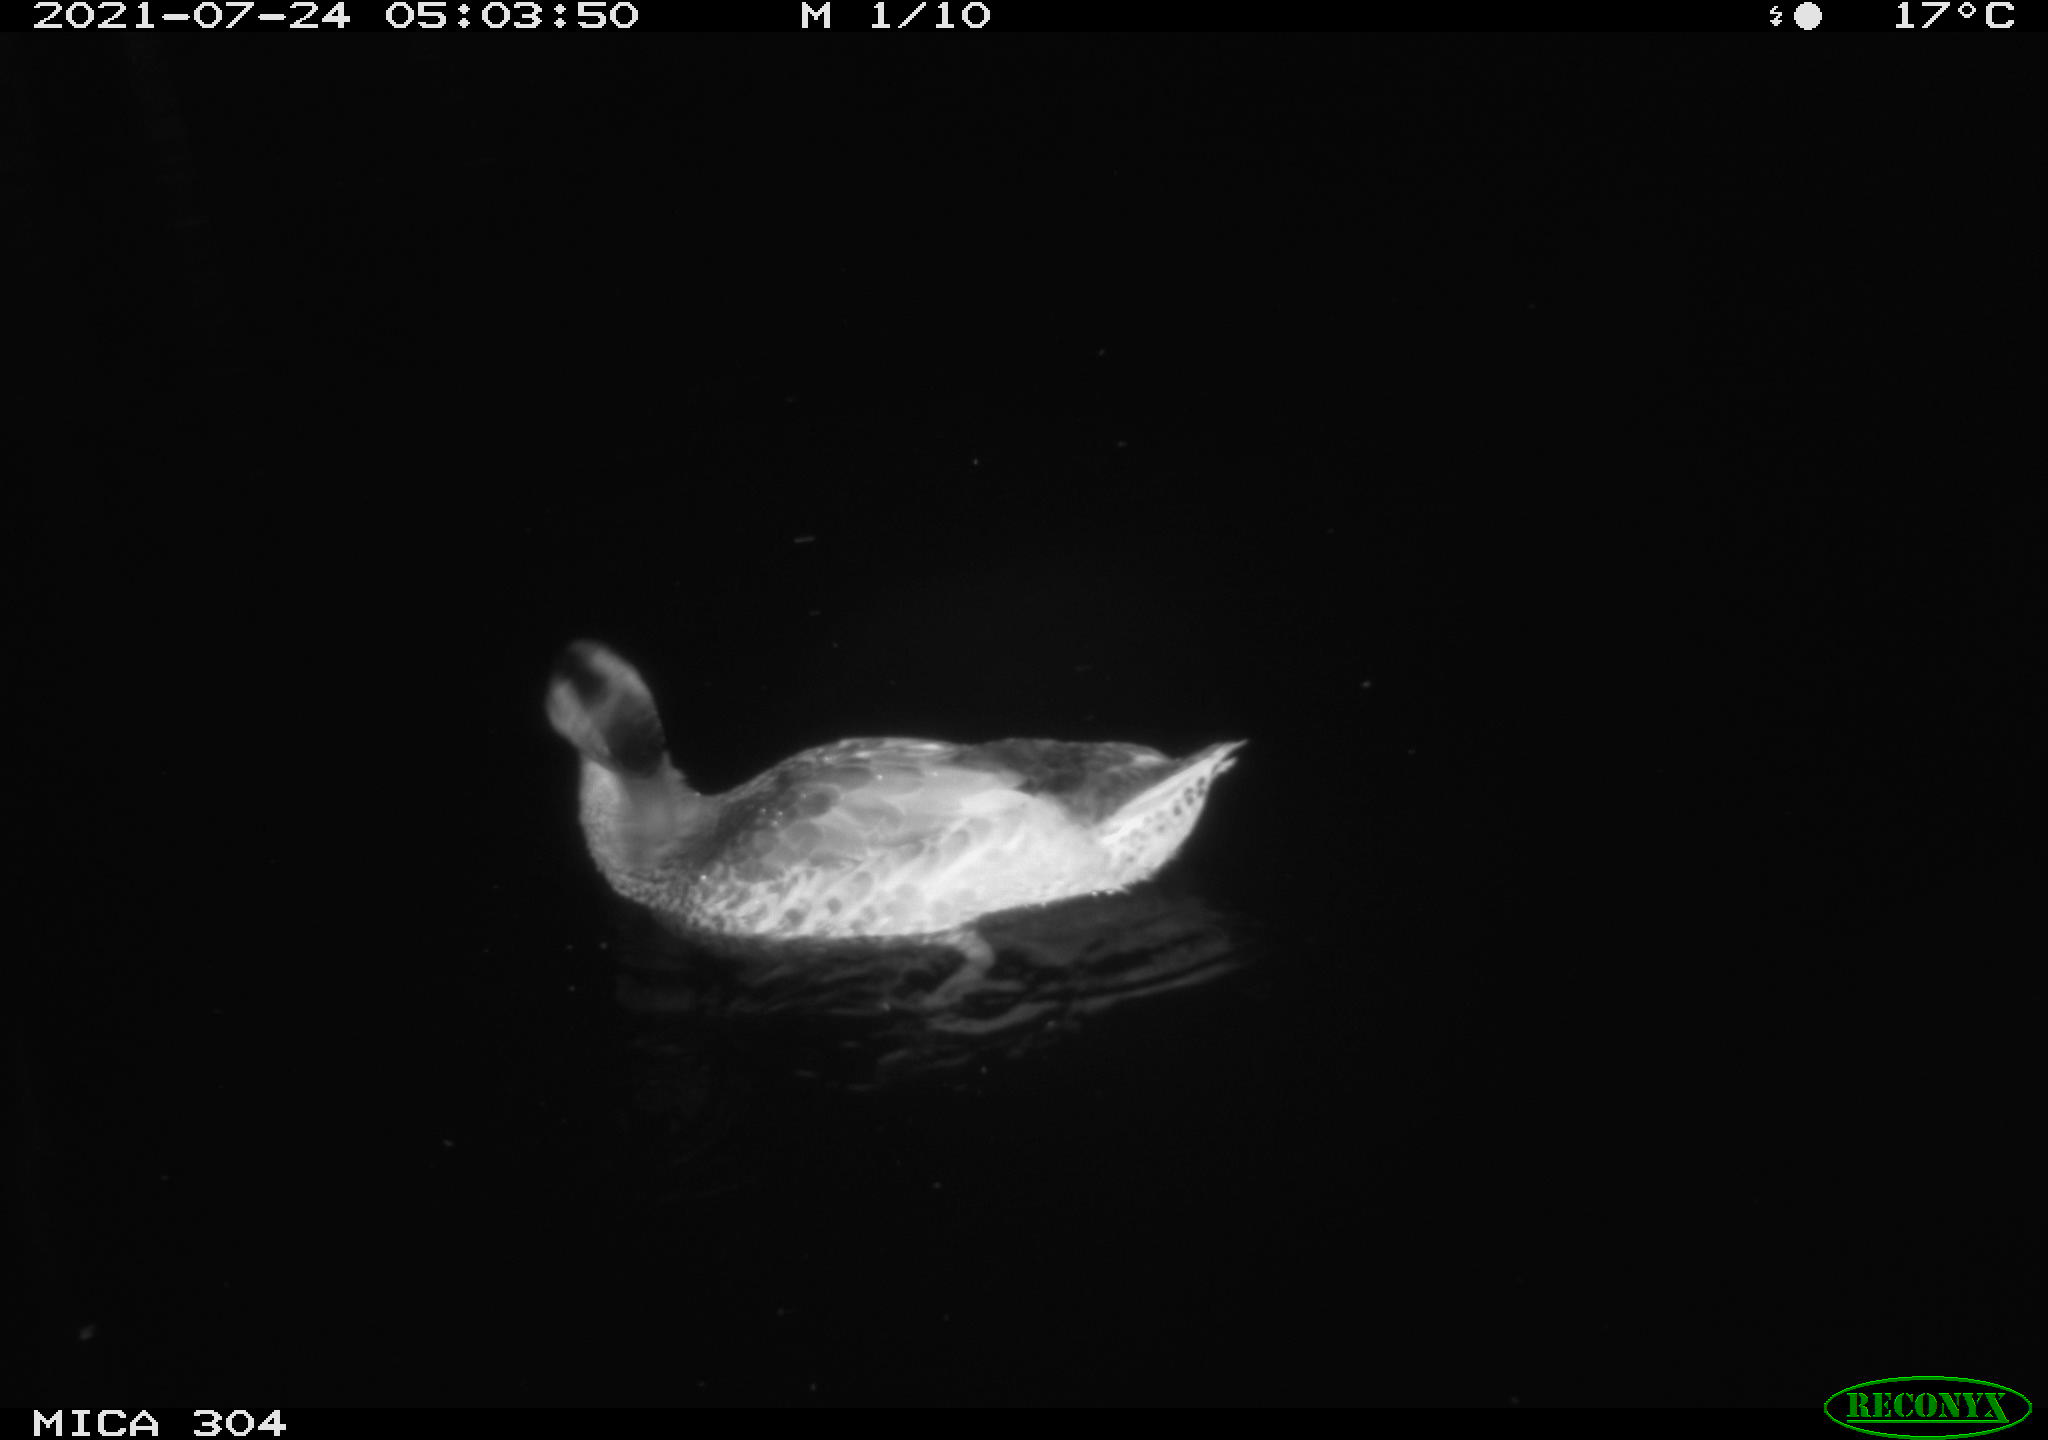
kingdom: Animalia
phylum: Chordata
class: Aves
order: Anseriformes
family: Anatidae
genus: Anas
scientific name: Anas platyrhynchos
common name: Mallard
